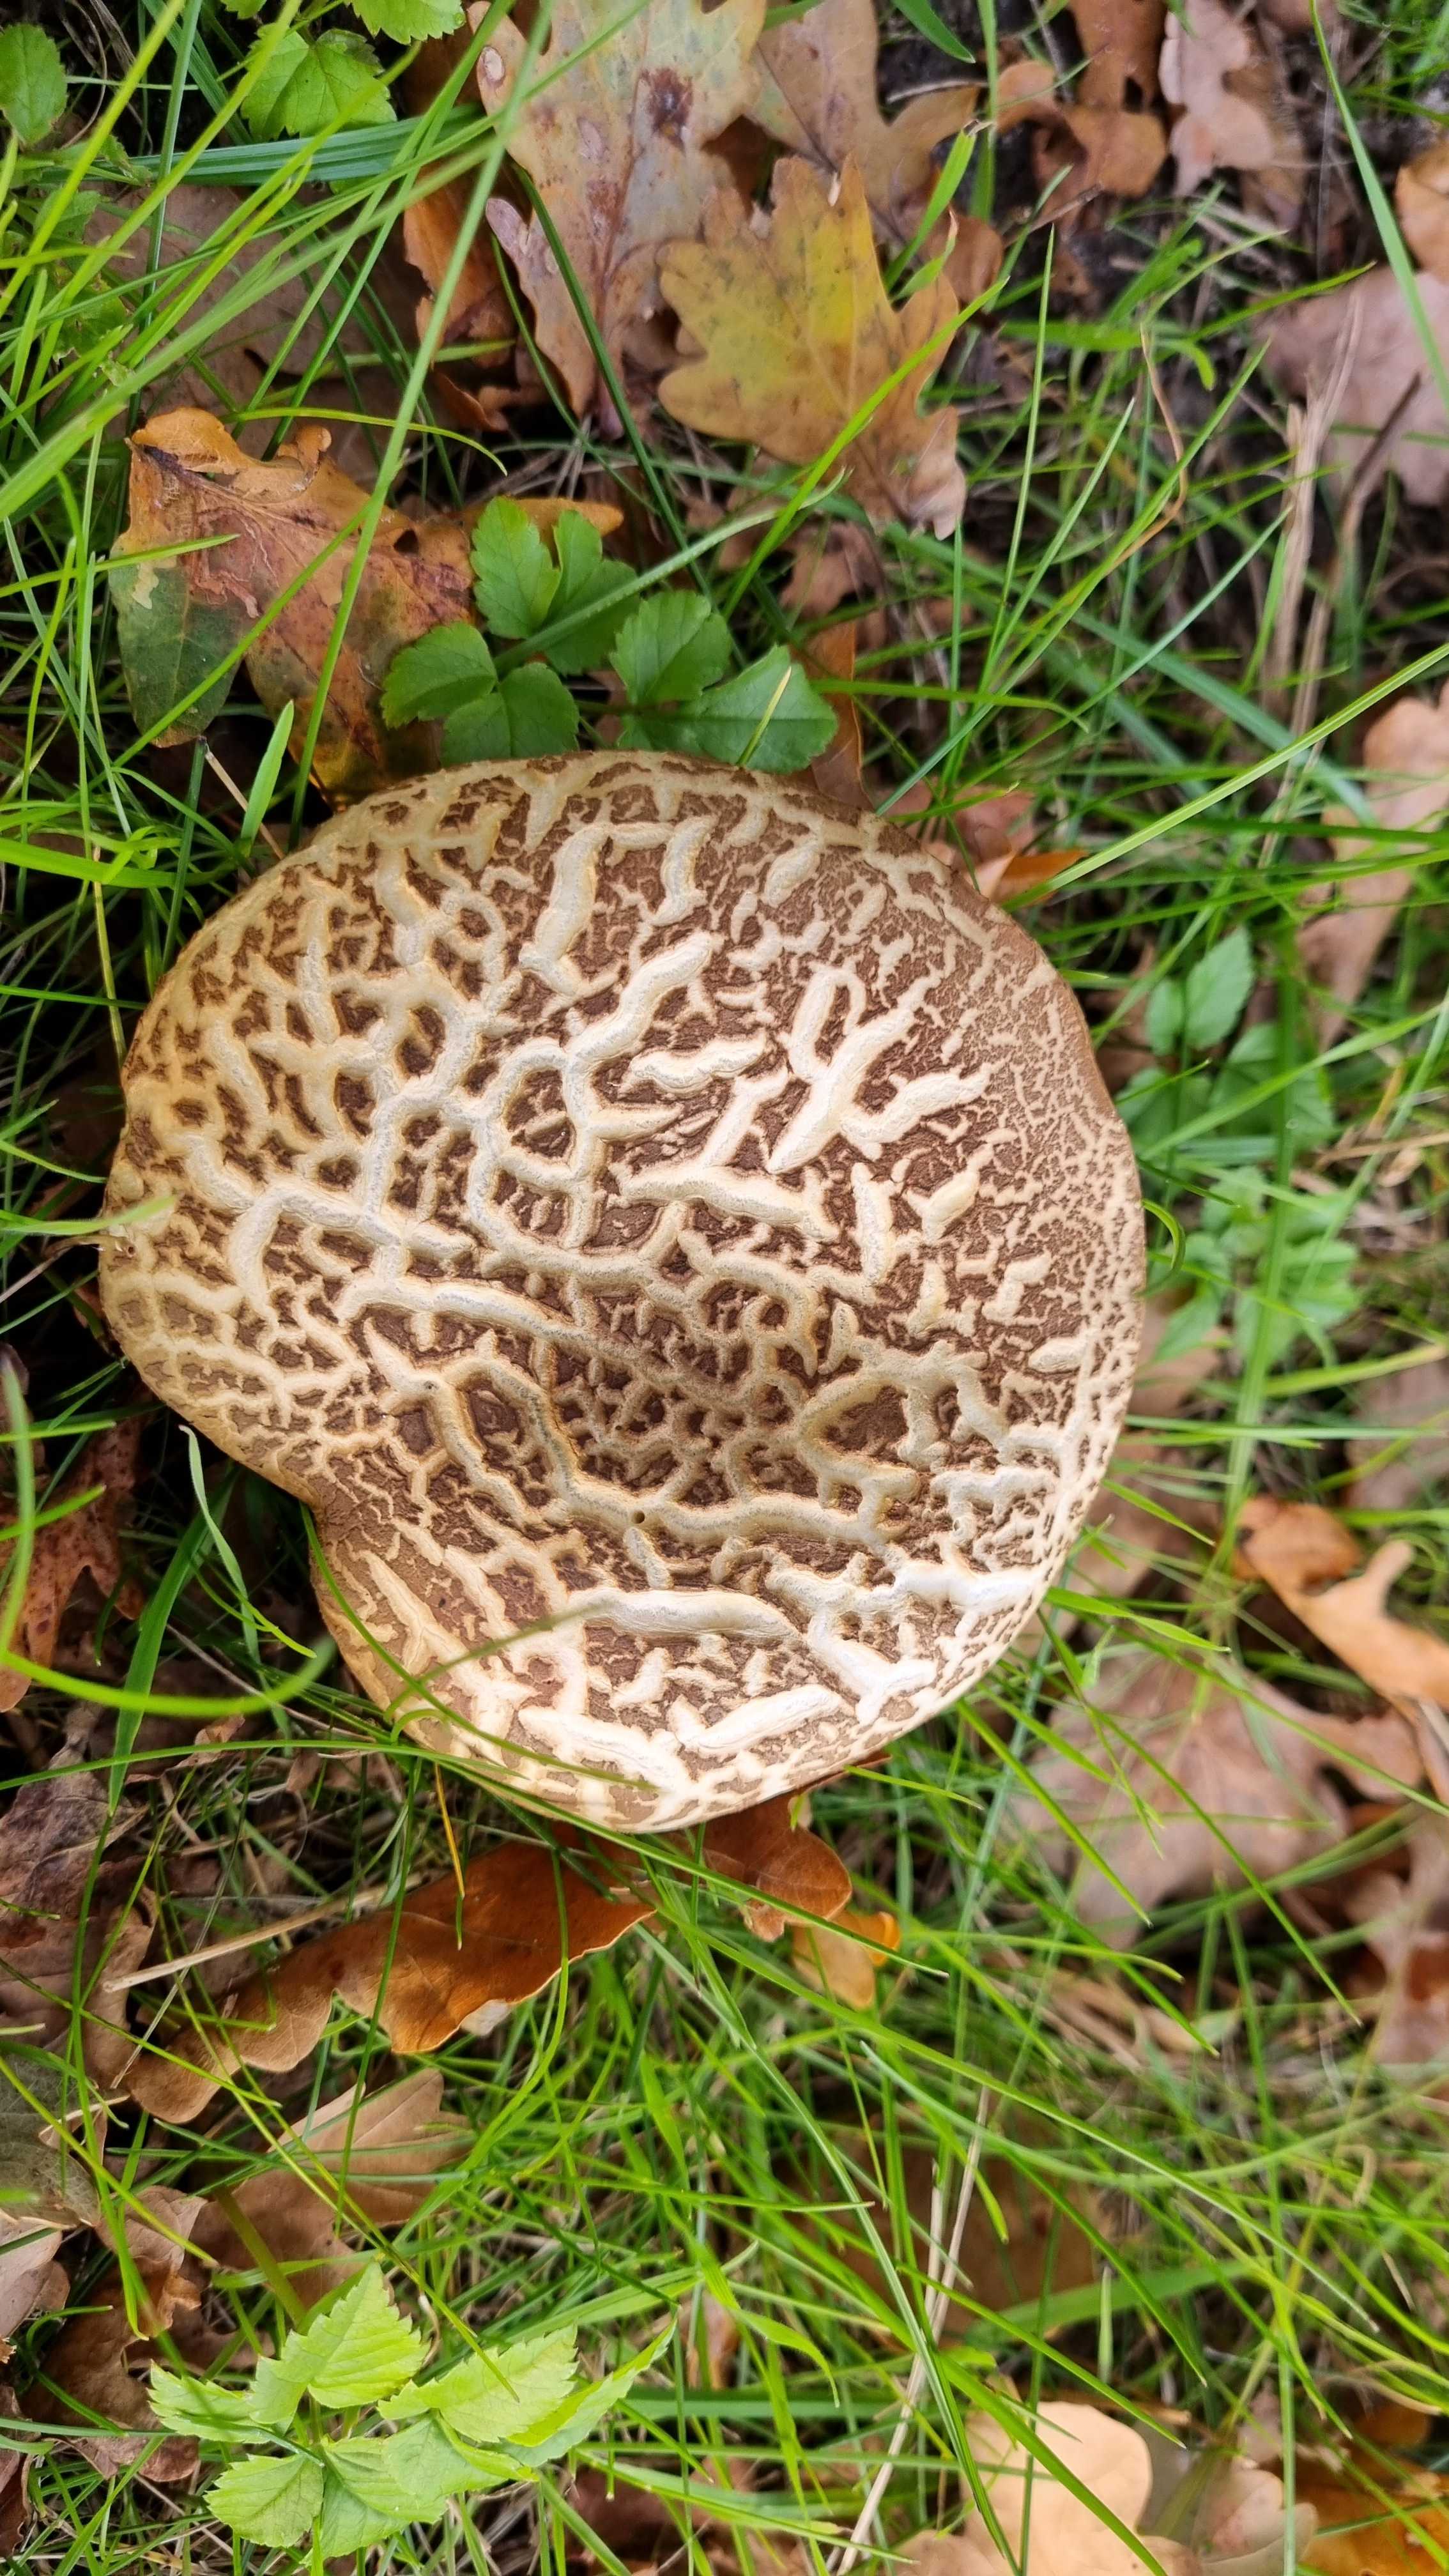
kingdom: Fungi
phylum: Basidiomycota
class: Agaricomycetes
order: Boletales
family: Boletaceae
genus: Xerocomellus
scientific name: Xerocomellus porosporus
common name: hvidsprukken rørhat
